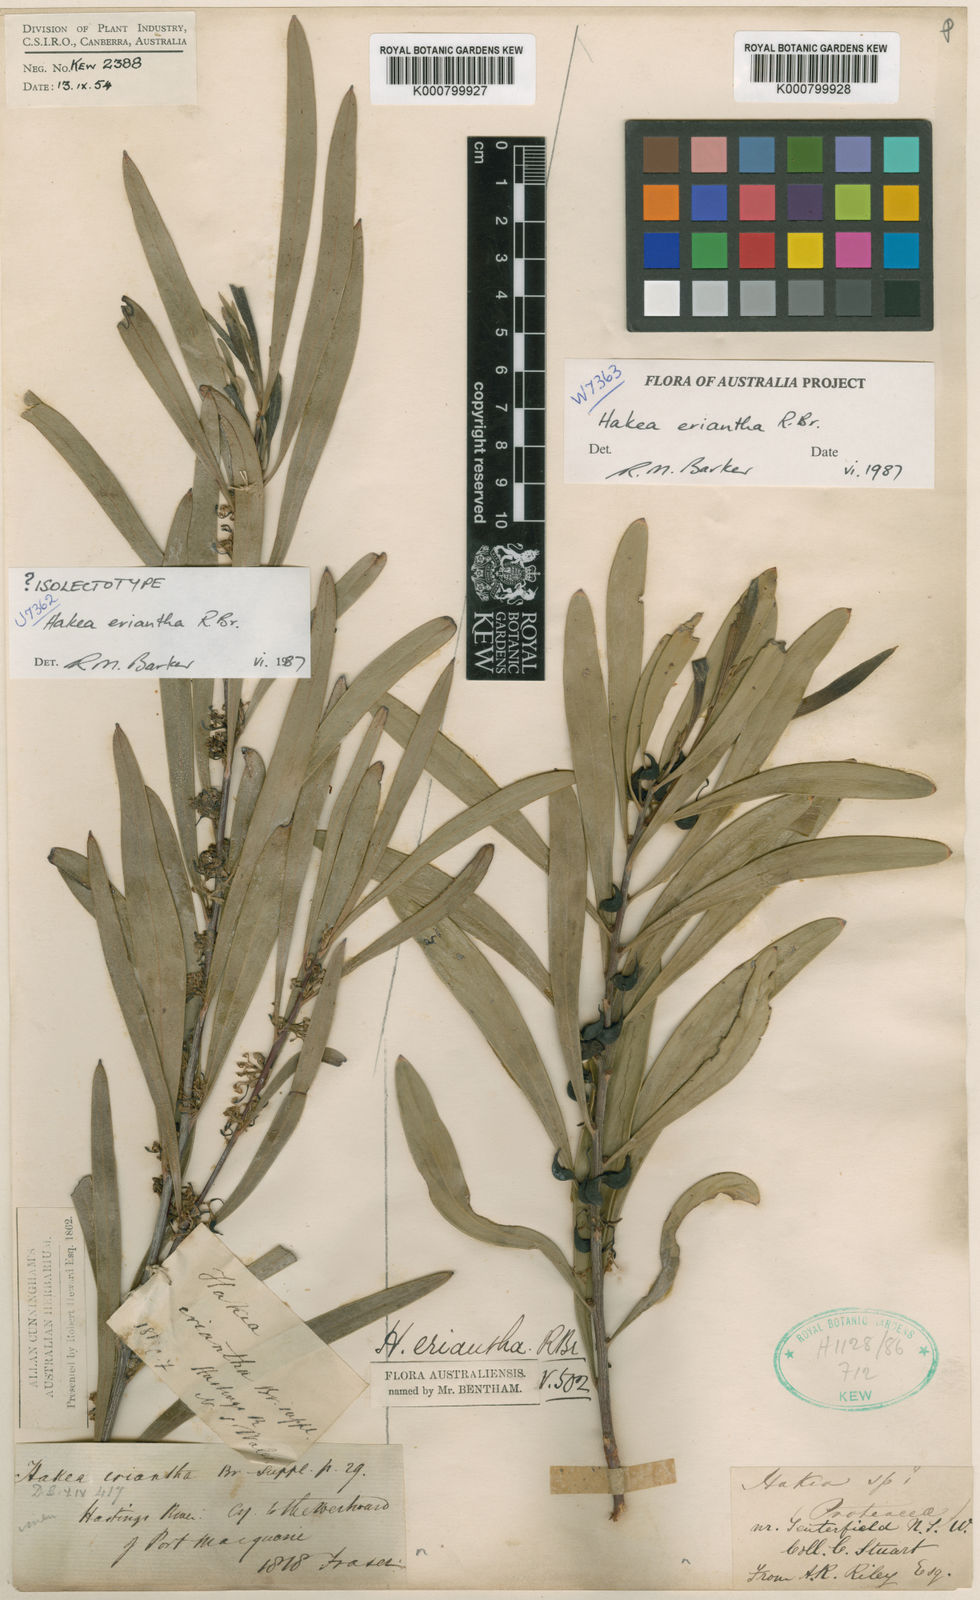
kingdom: Plantae
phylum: Tracheophyta
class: Magnoliopsida
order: Proteales
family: Proteaceae
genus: Hakea
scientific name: Hakea eriantha
